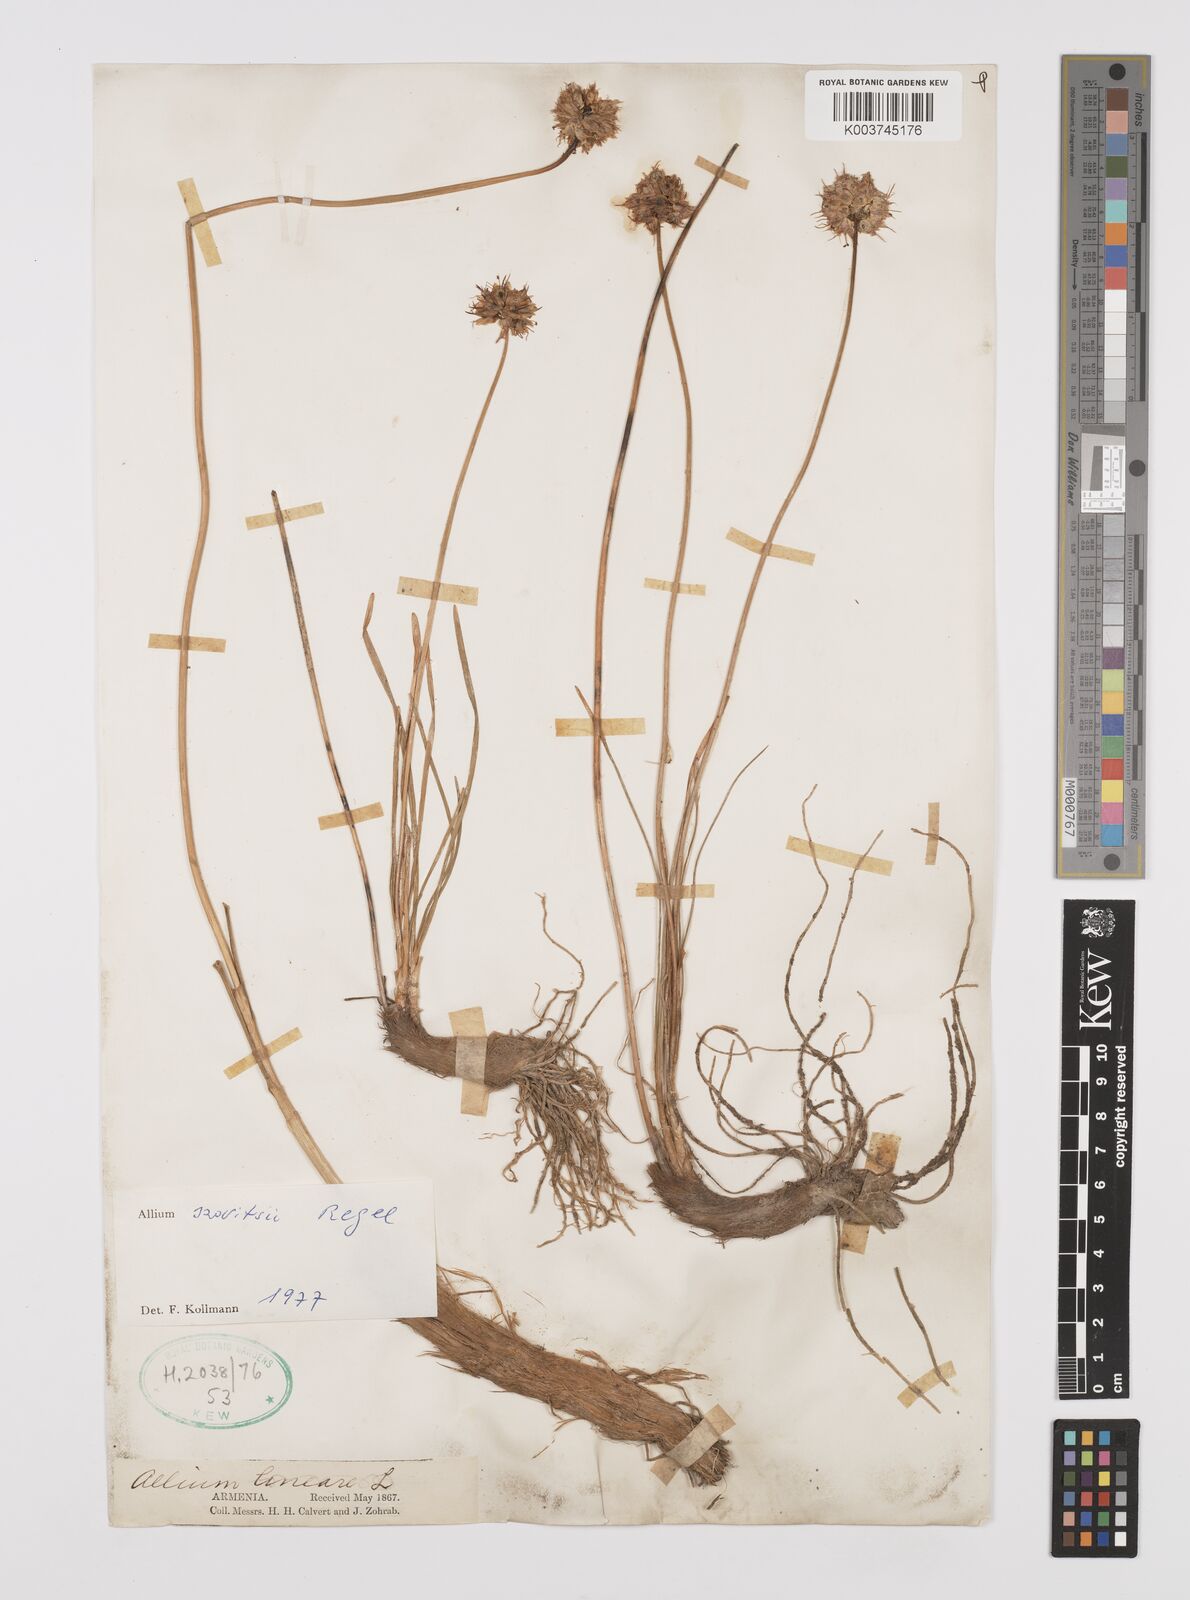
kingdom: Plantae
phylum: Tracheophyta
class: Liliopsida
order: Asparagales
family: Amaryllidaceae
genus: Allium
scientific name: Allium szovitsii
